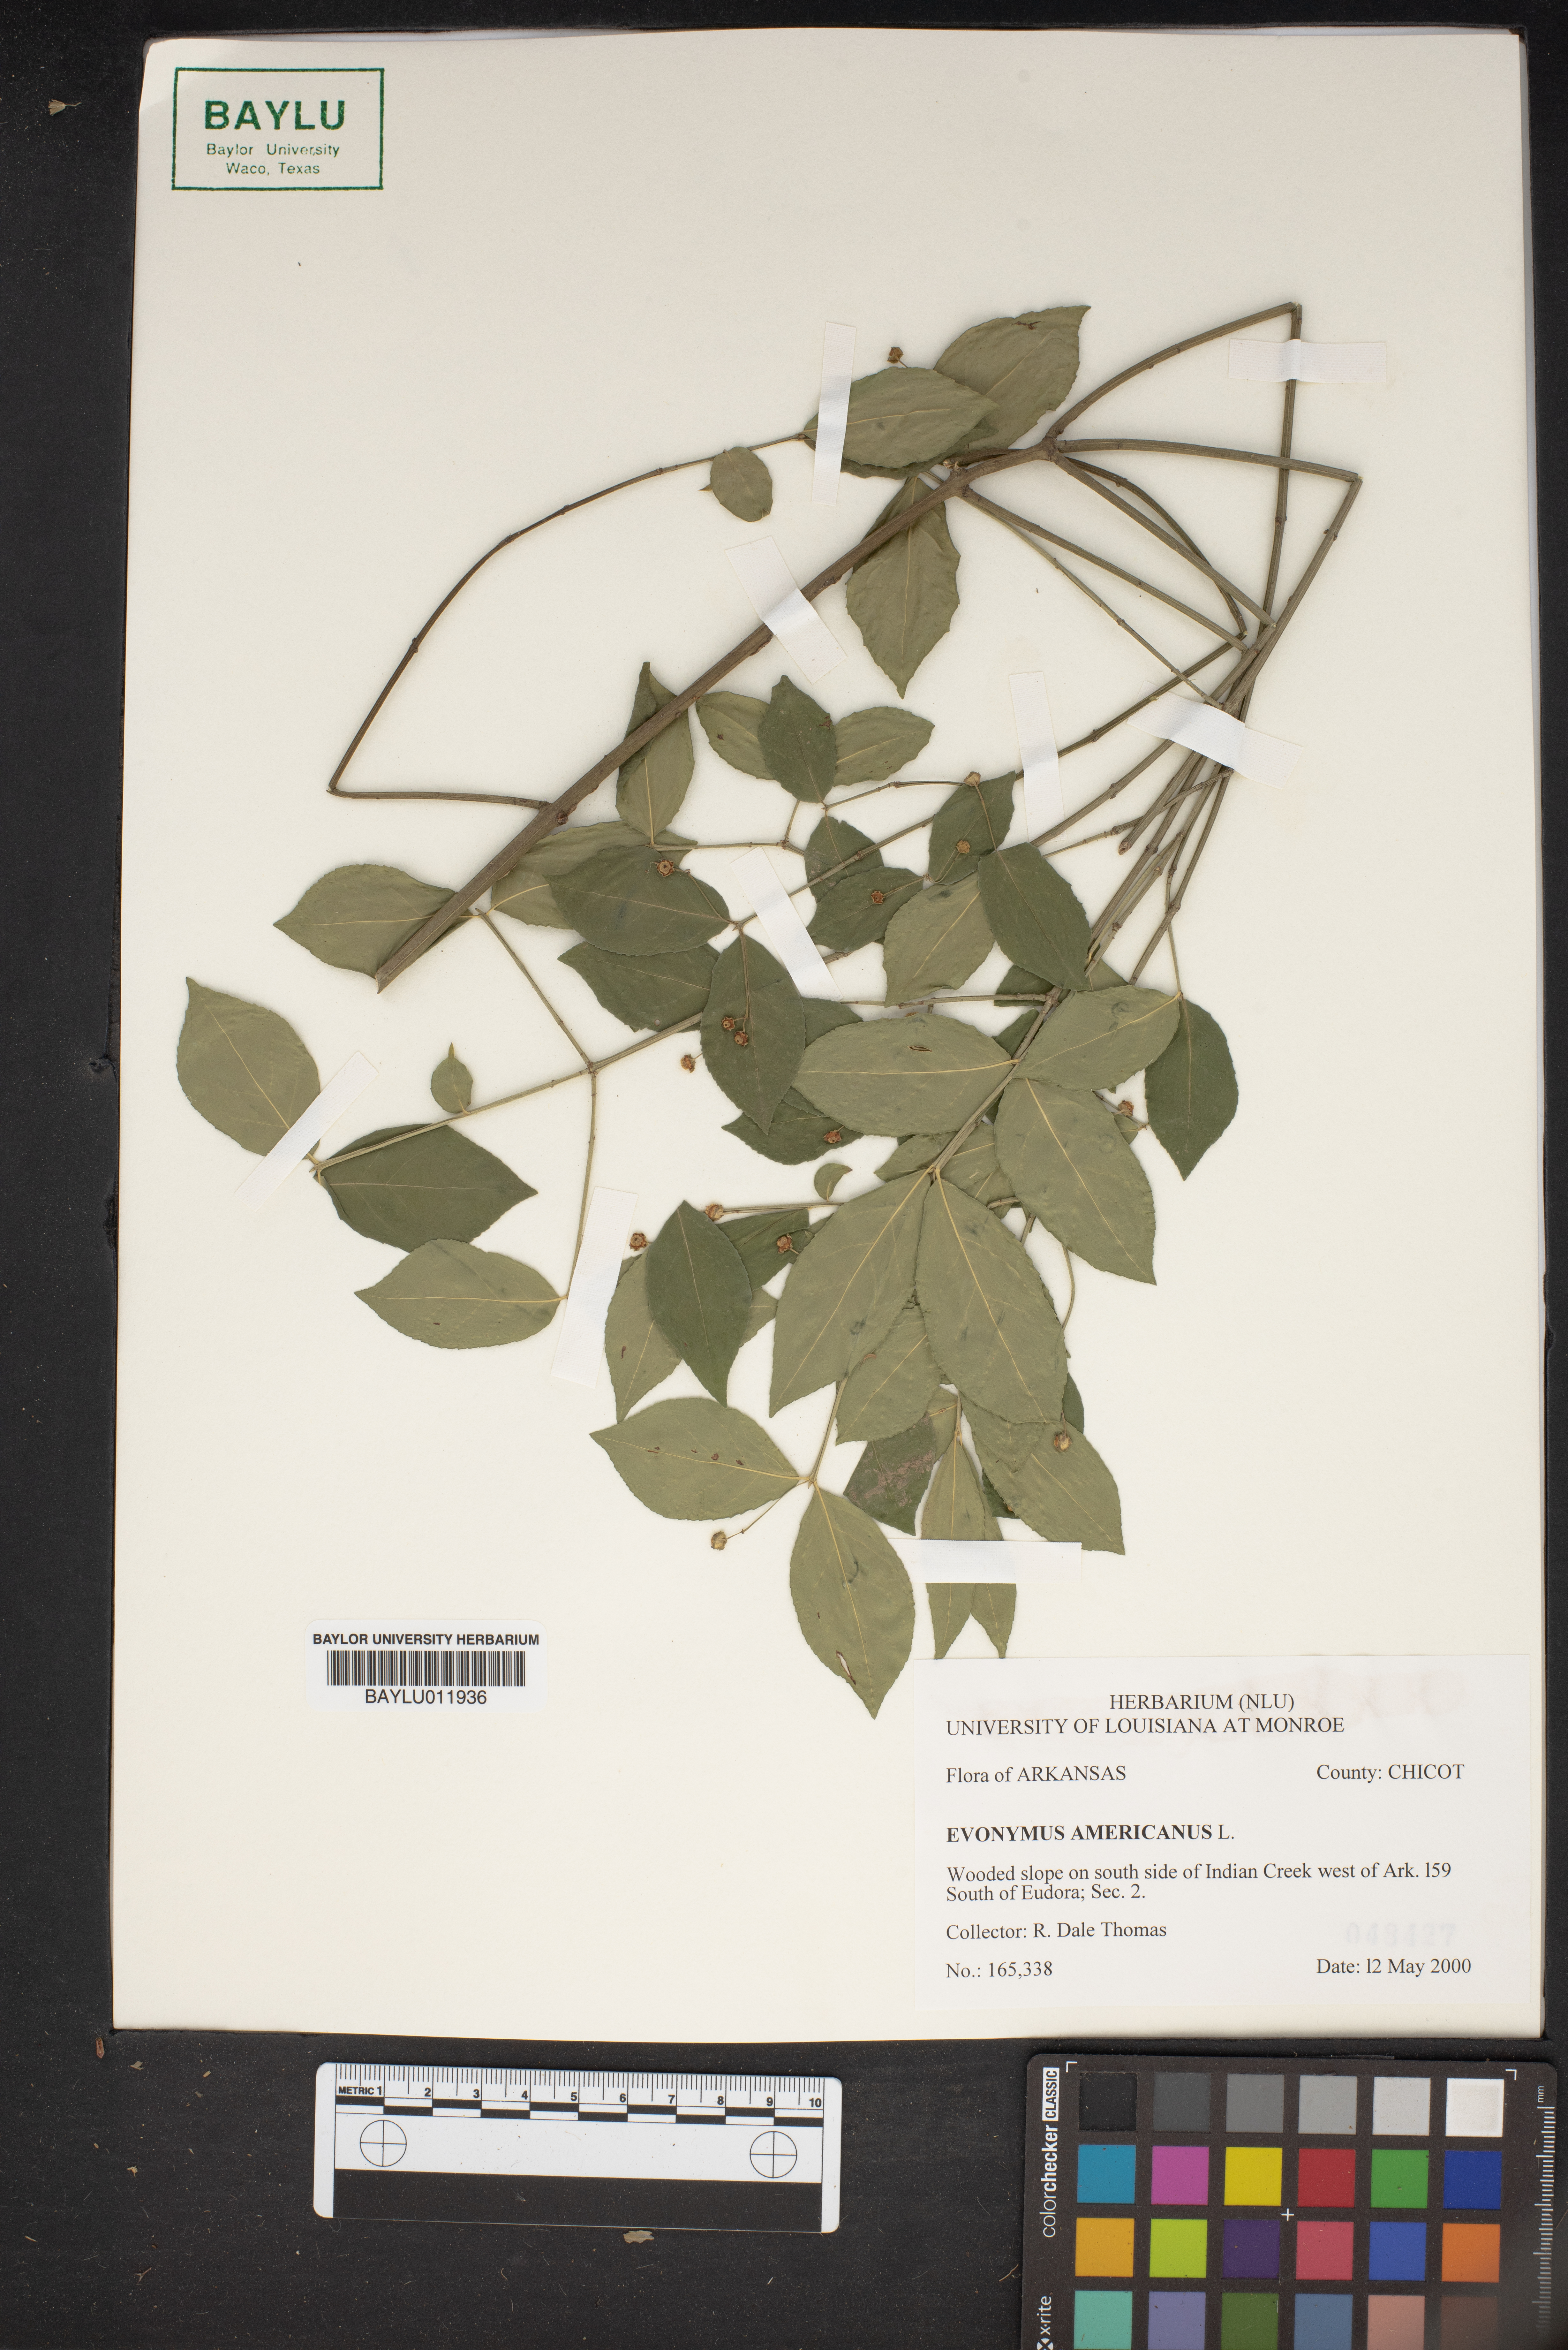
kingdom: Plantae
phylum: Tracheophyta
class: Magnoliopsida
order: Celastrales
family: Celastraceae
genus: Euonymus
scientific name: Euonymus americanus
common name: Bursting-heart
